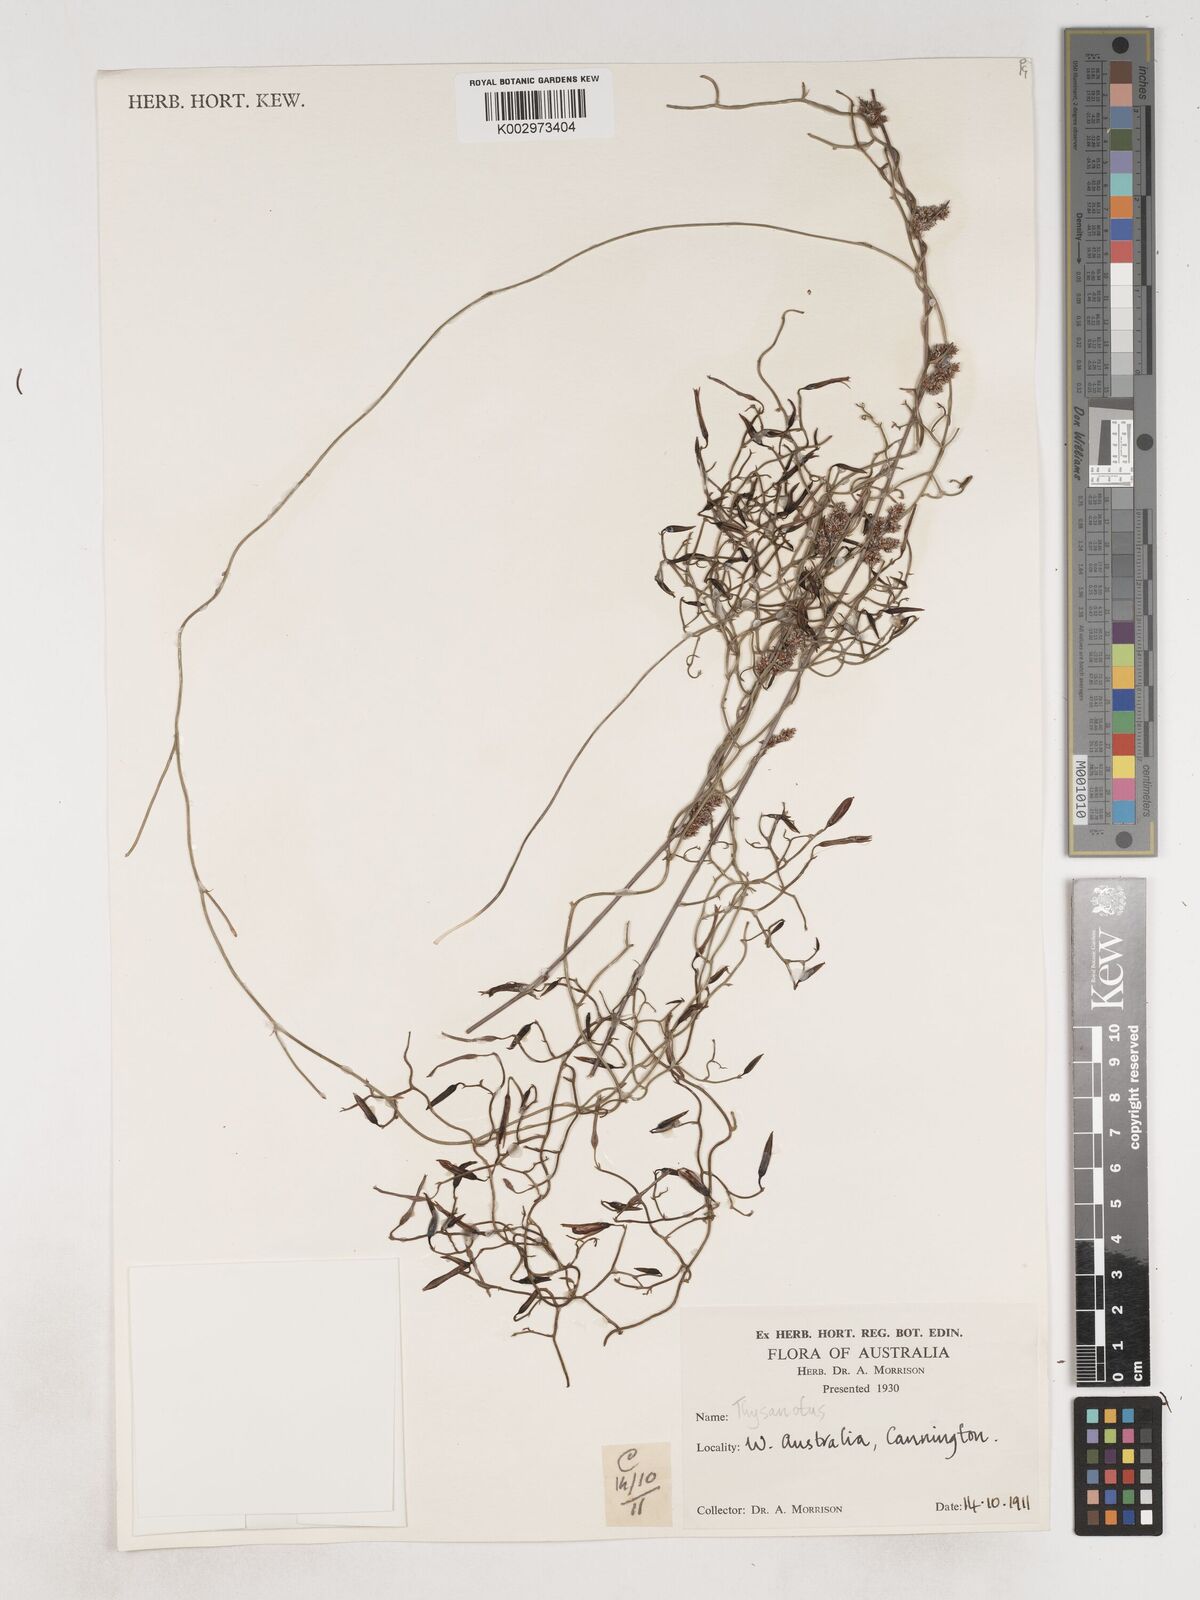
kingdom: Plantae
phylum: Tracheophyta
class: Liliopsida
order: Asparagales
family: Asparagaceae
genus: Thysanotus
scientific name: Thysanotus
